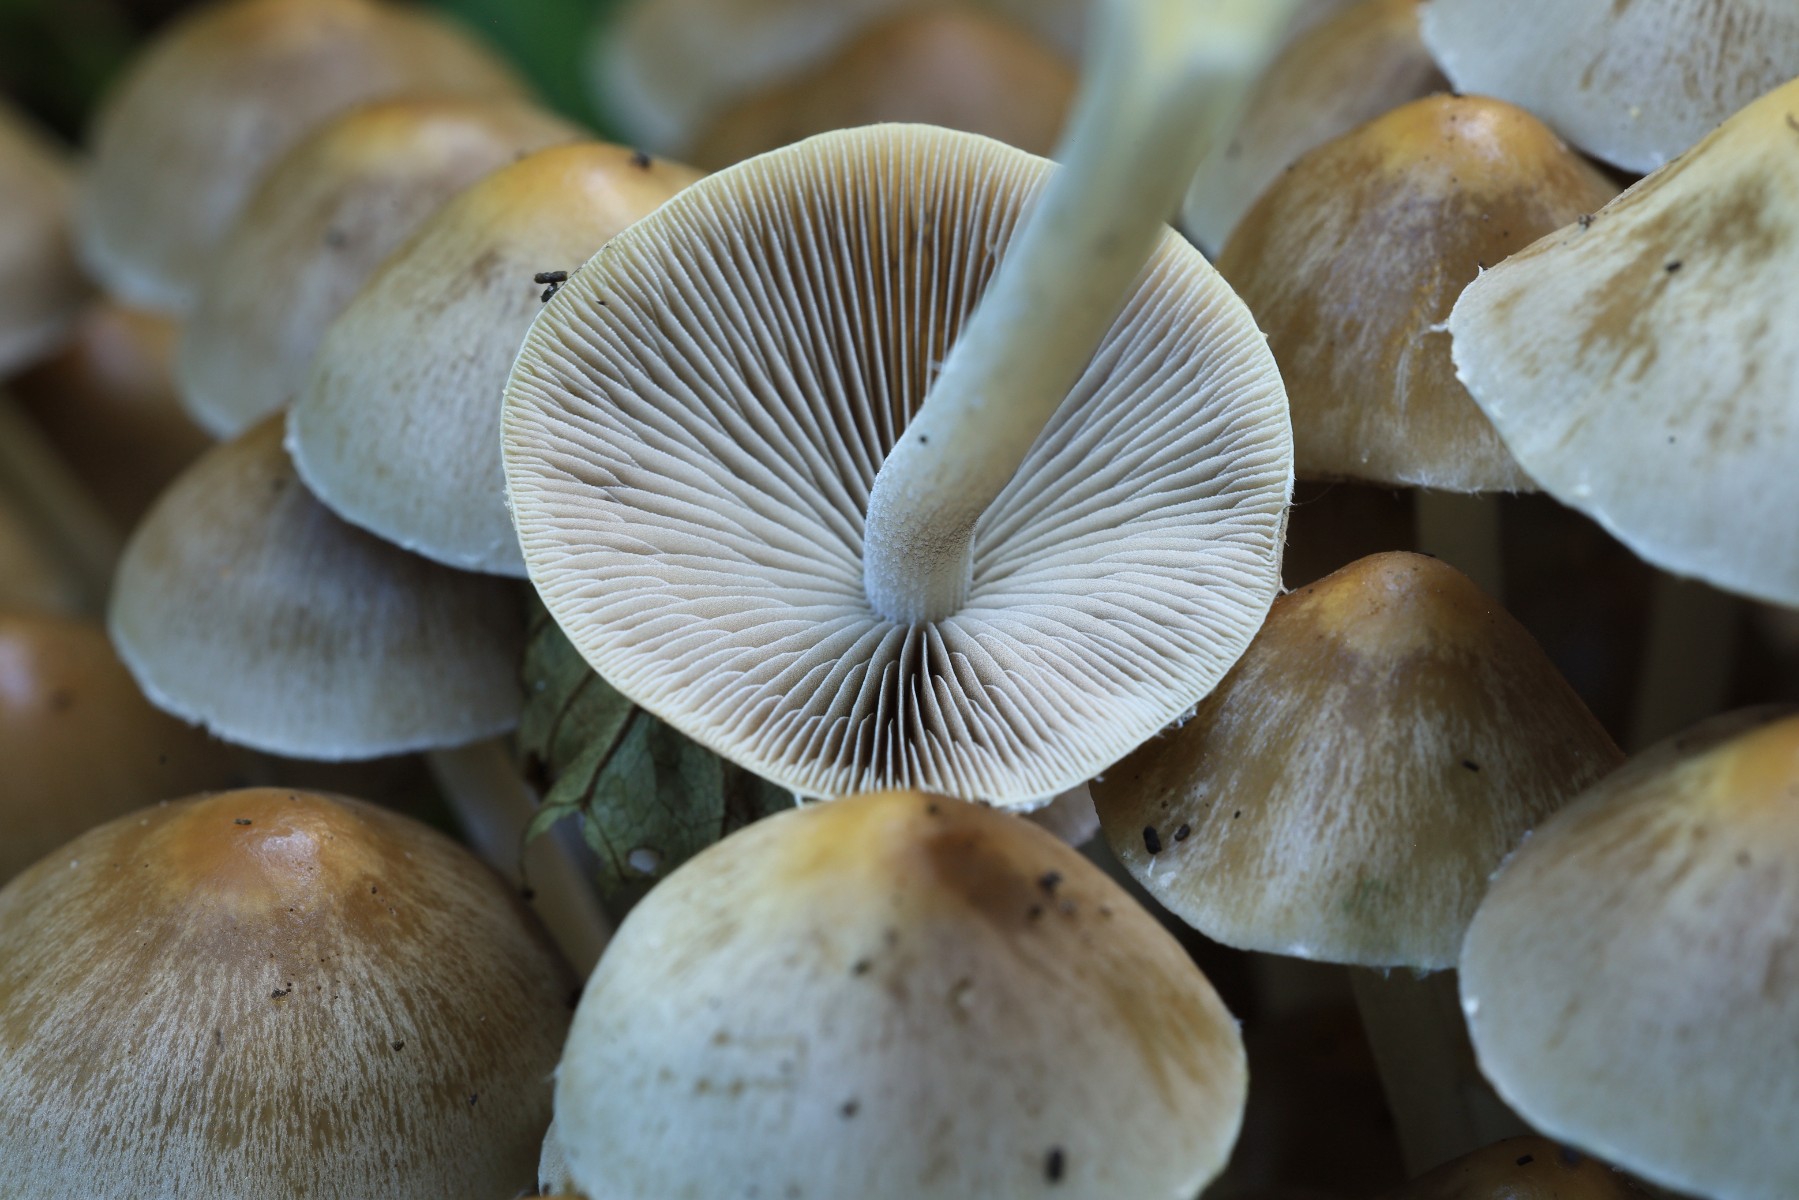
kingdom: Fungi
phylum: Basidiomycota
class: Agaricomycetes
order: Agaricales
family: Psathyrellaceae
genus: Britzelmayria
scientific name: Britzelmayria multipedata
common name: knippe-mørkhat
